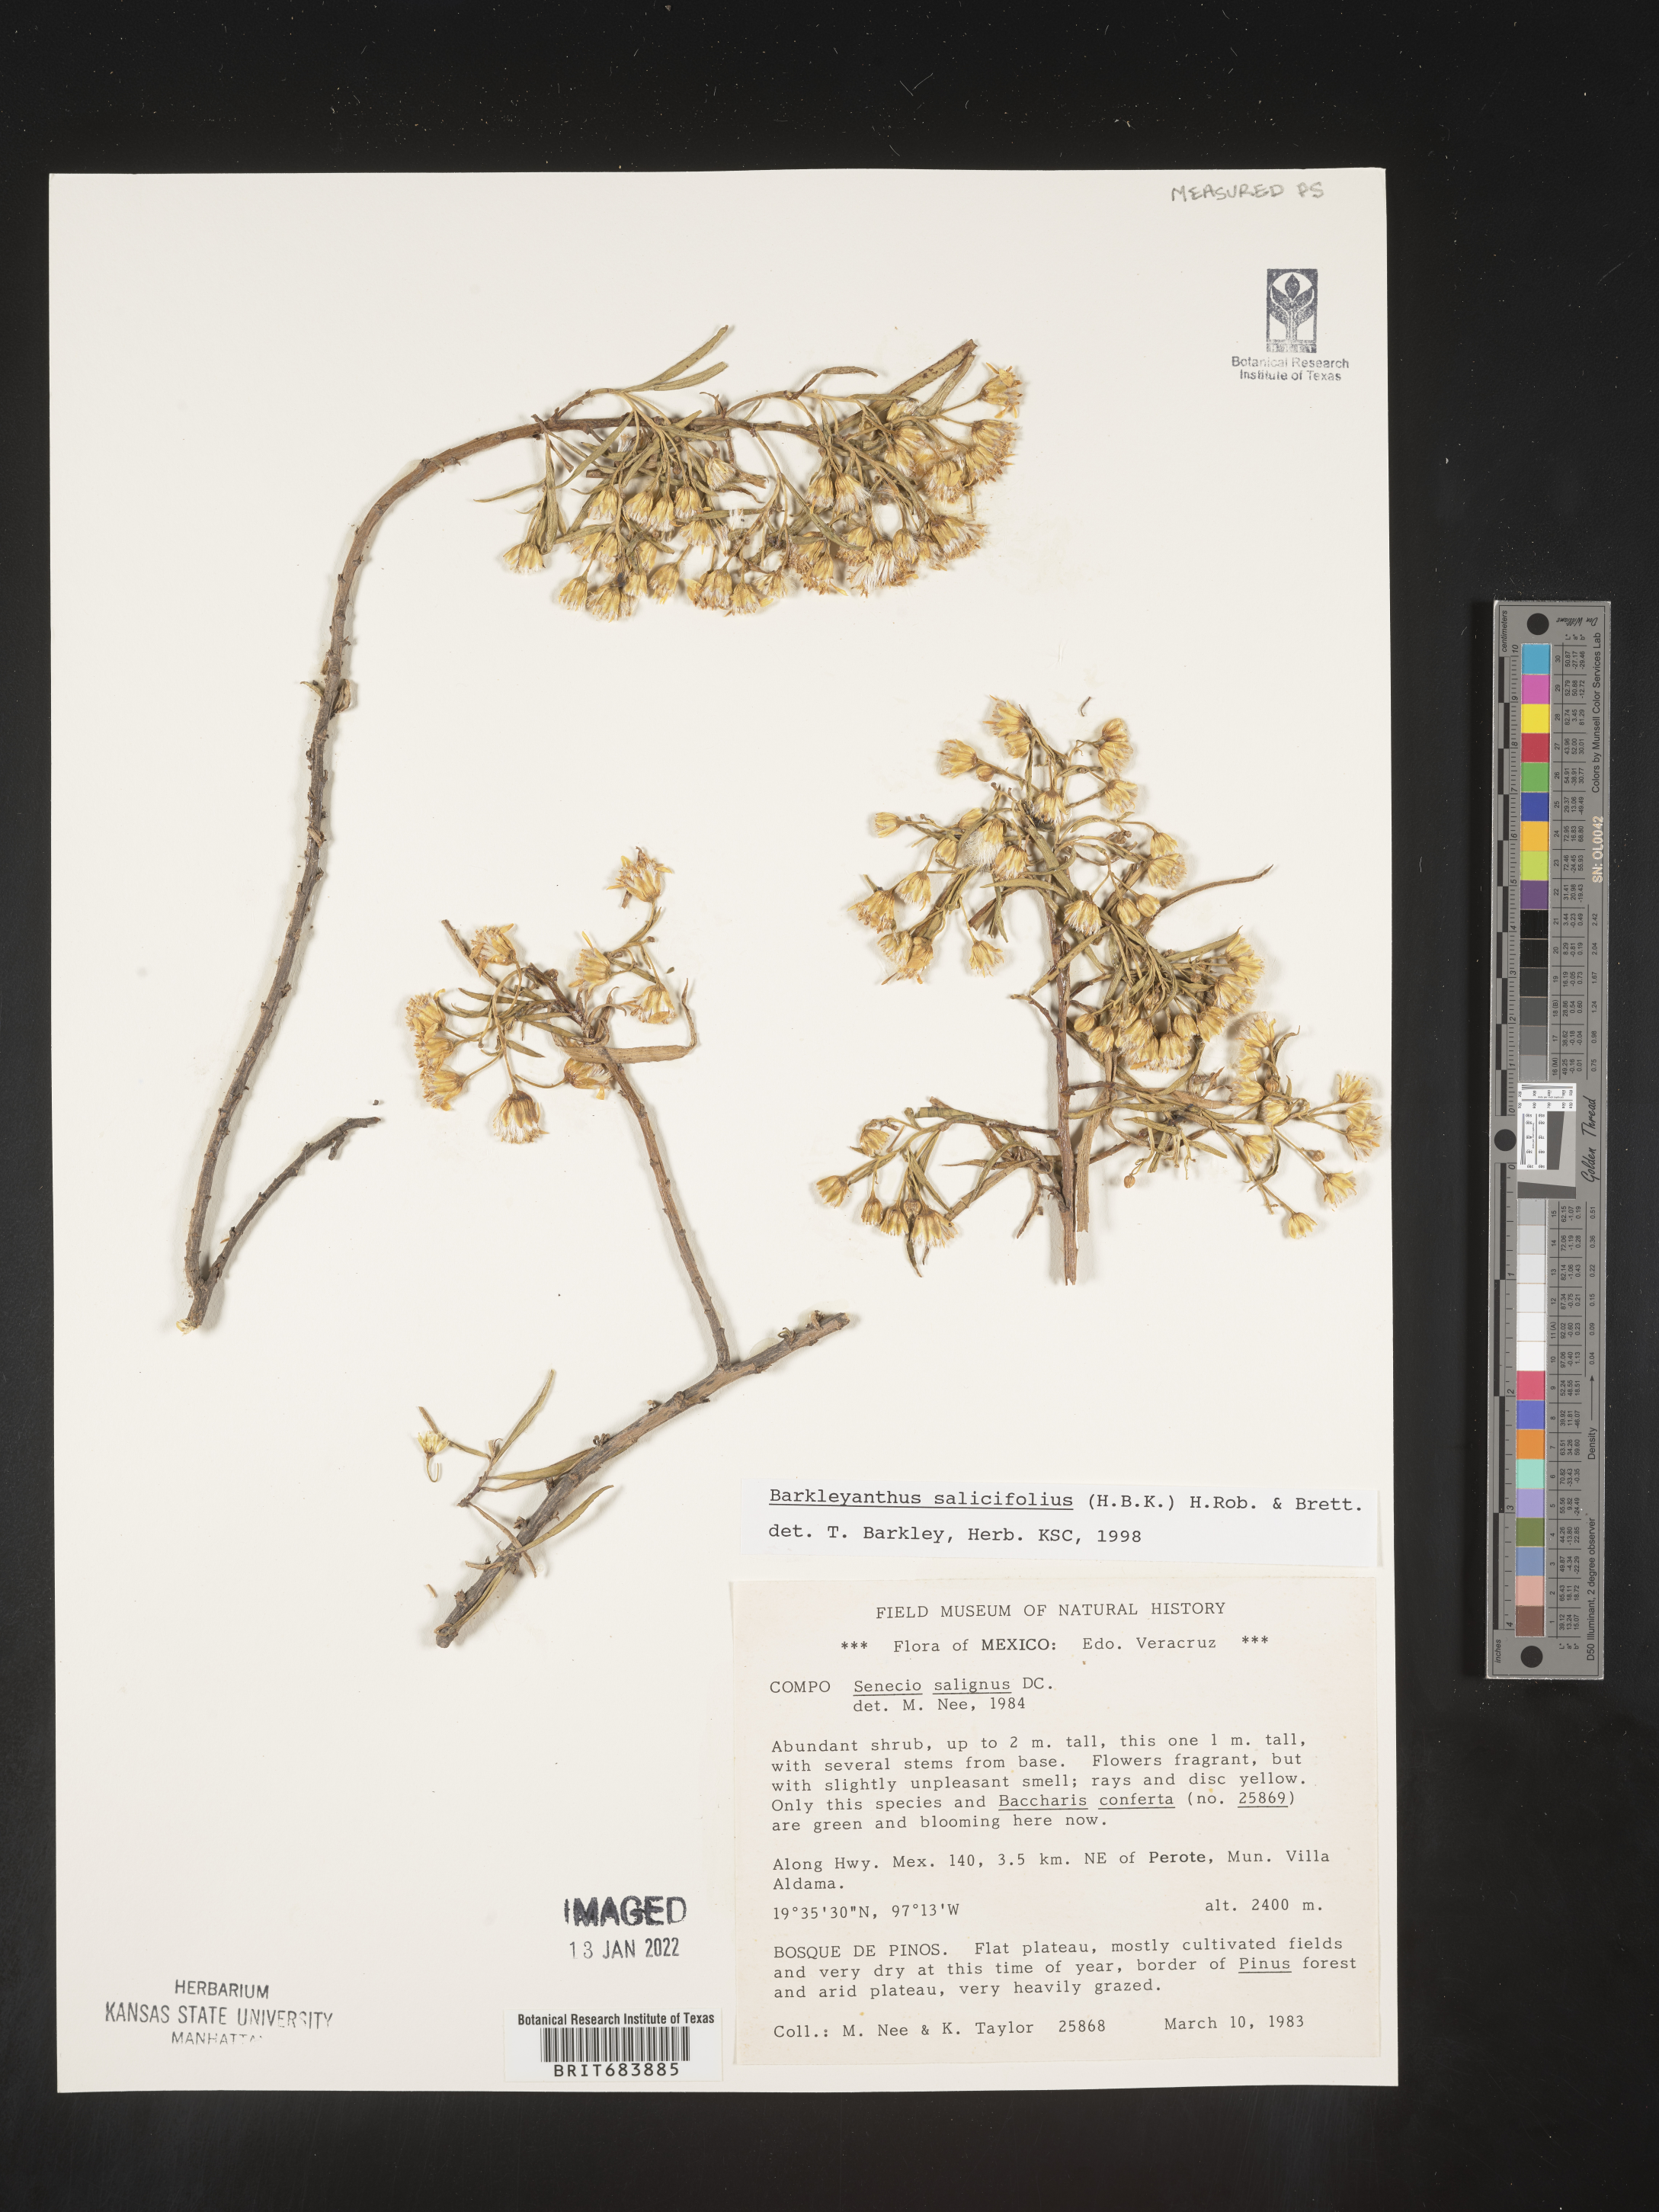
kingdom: Plantae
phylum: Tracheophyta
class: Magnoliopsida
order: Asterales
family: Asteraceae
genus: Barkleyanthus
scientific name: Barkleyanthus
